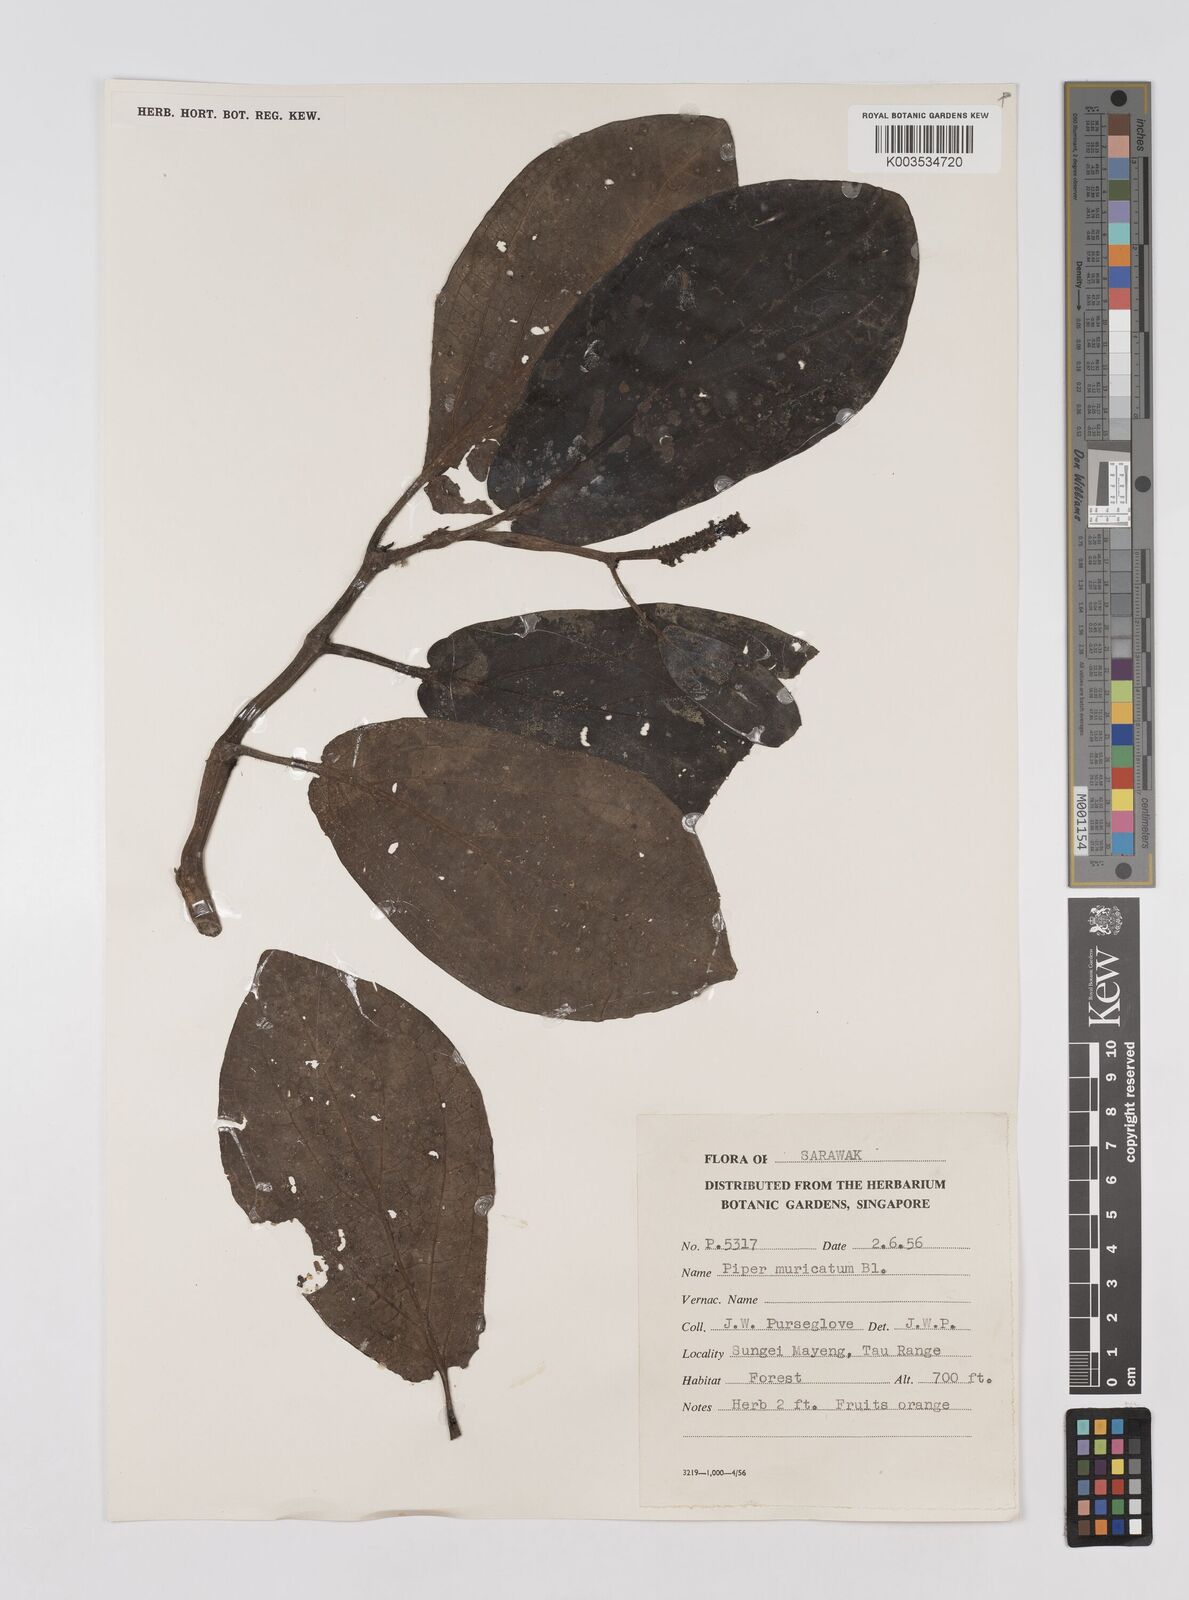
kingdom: Plantae
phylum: Tracheophyta
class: Magnoliopsida
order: Piperales
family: Piperaceae
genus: Piper
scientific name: Piper muricatum
